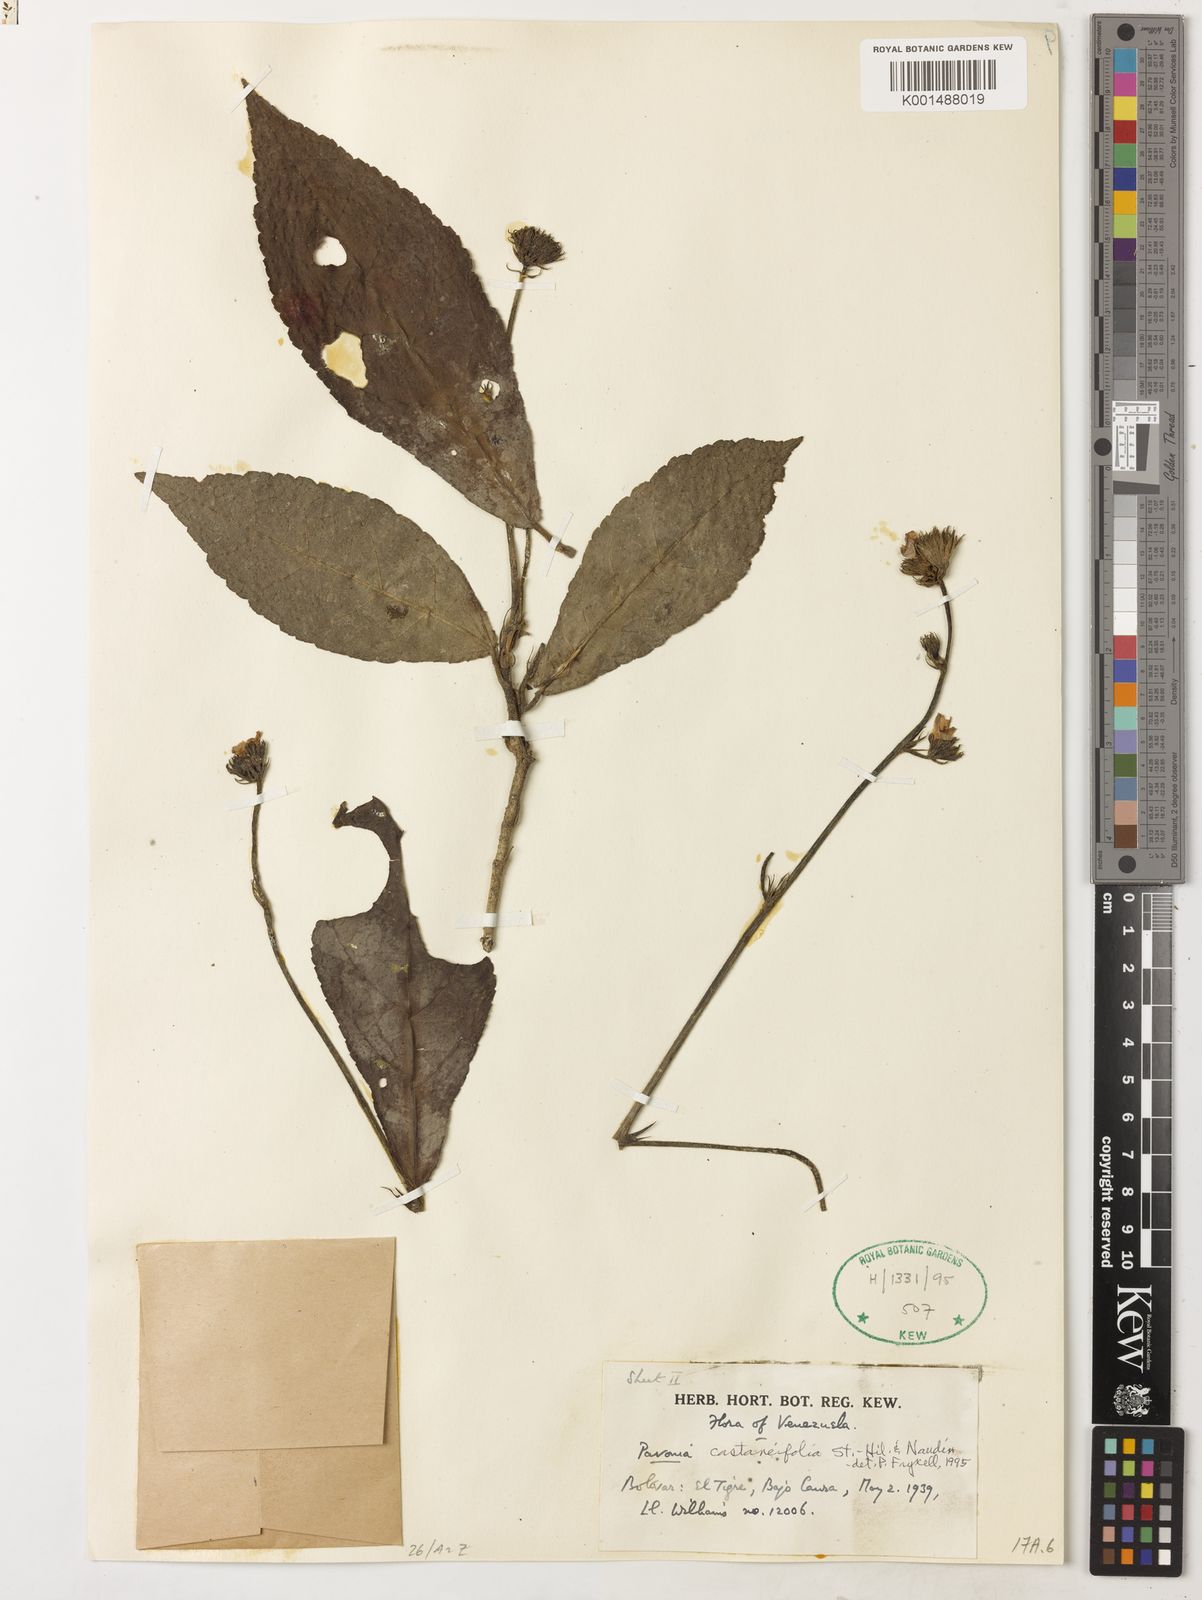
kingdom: Plantae
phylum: Tracheophyta
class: Magnoliopsida
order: Malvales
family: Malvaceae
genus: Pavonia
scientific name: Pavonia castaneifolia
